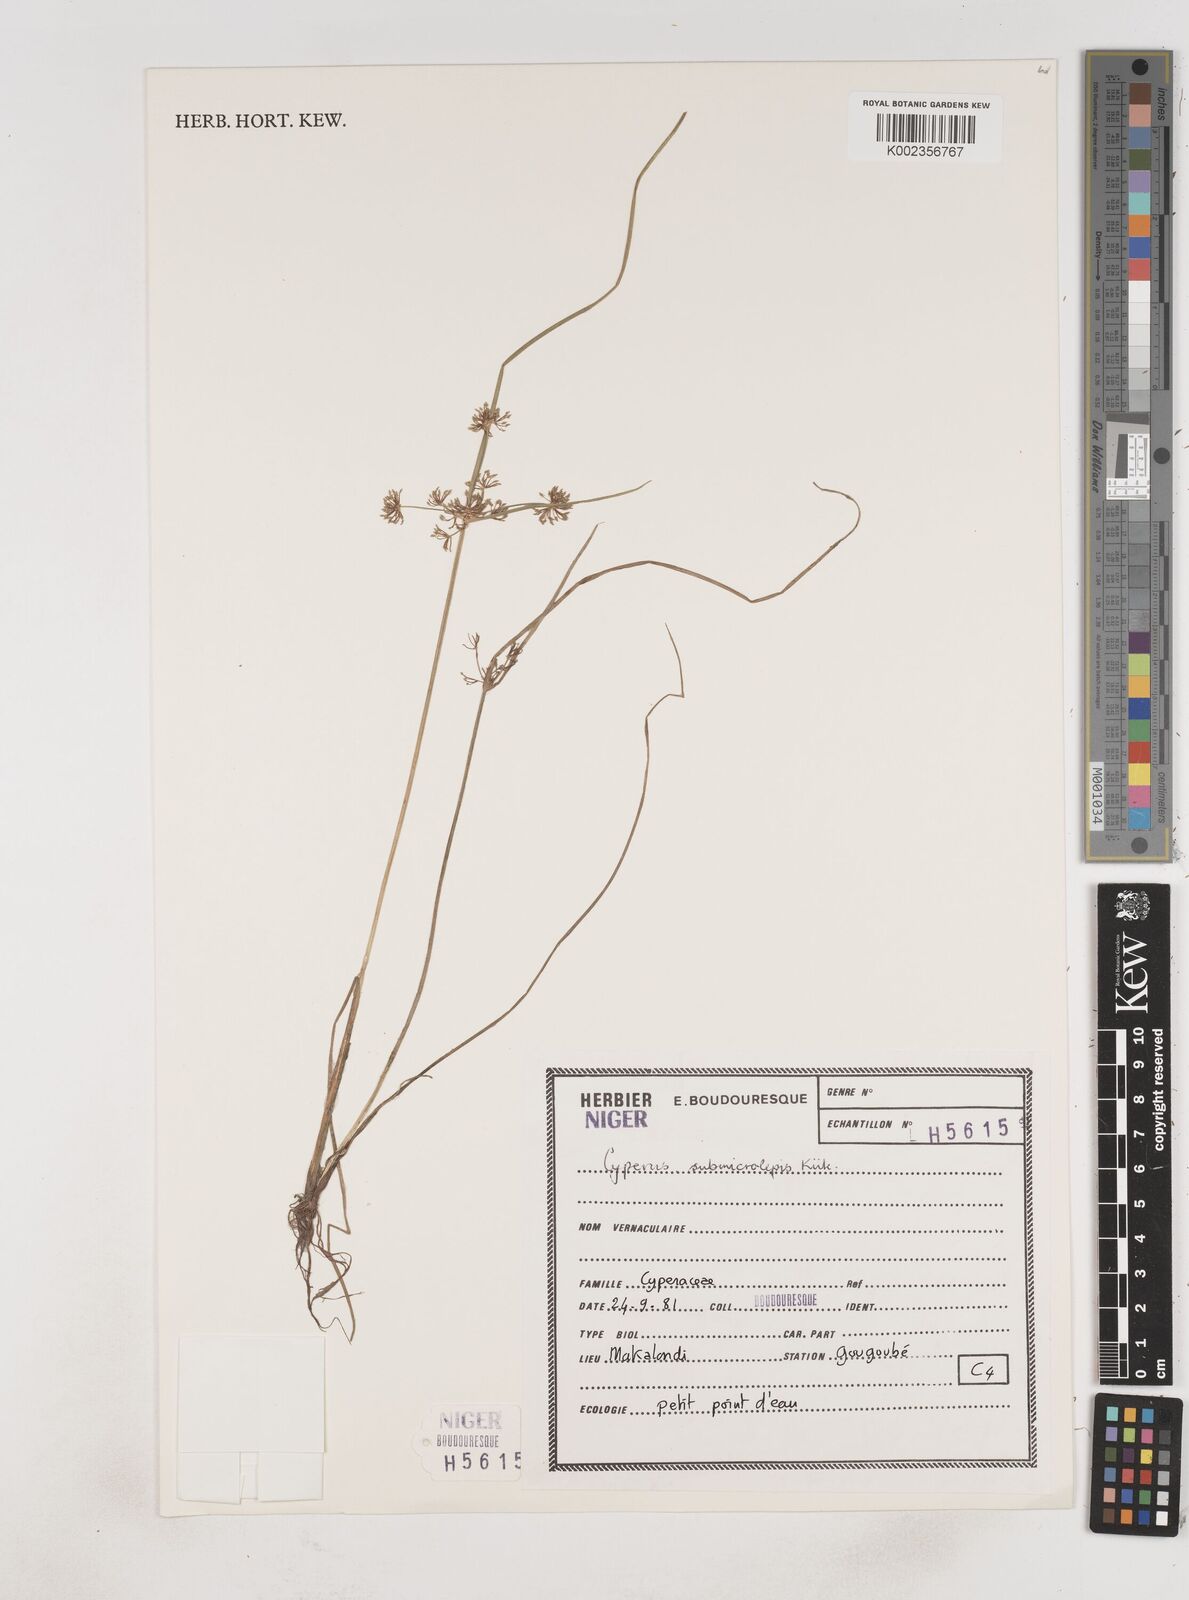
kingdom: Plantae
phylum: Tracheophyta
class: Liliopsida
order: Poales
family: Cyperaceae
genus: Cyperus
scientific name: Cyperus submicrolepis
